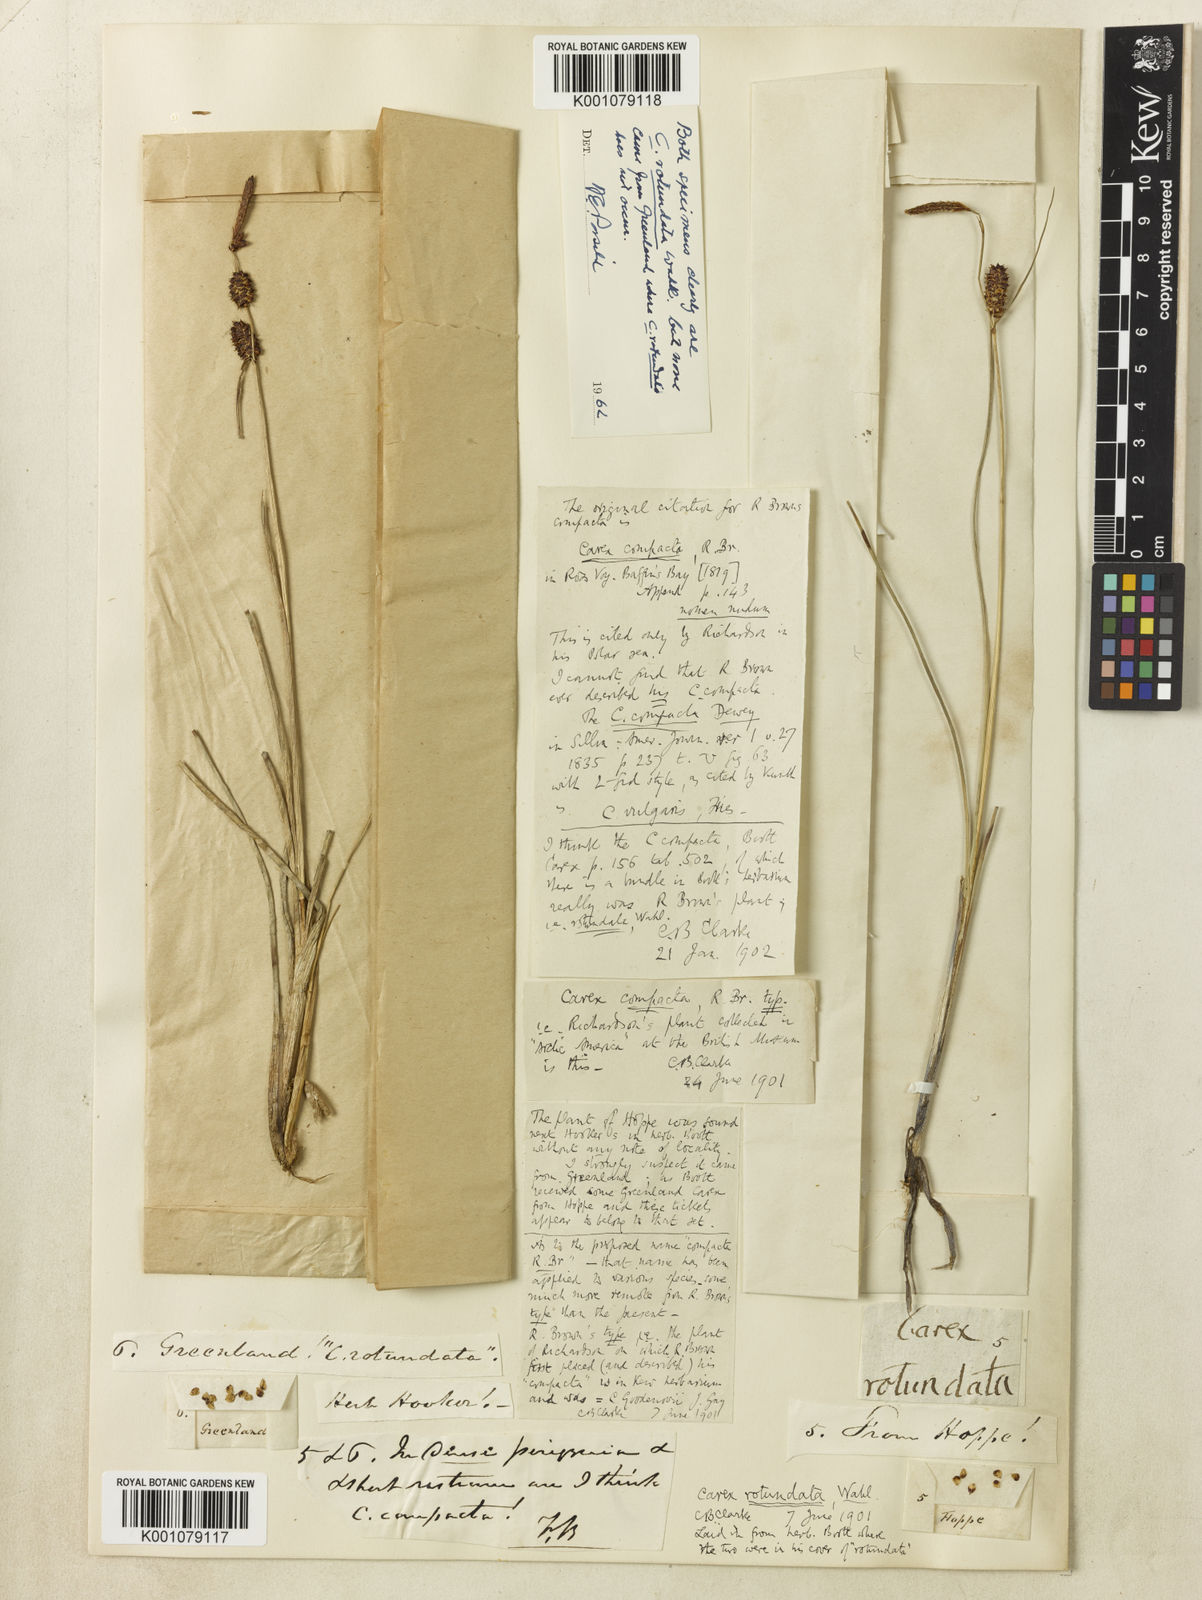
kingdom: Plantae
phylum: Tracheophyta
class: Liliopsida
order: Poales
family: Cyperaceae
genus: Carex
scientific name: Carex rotundata
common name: Round-fruited sedge
